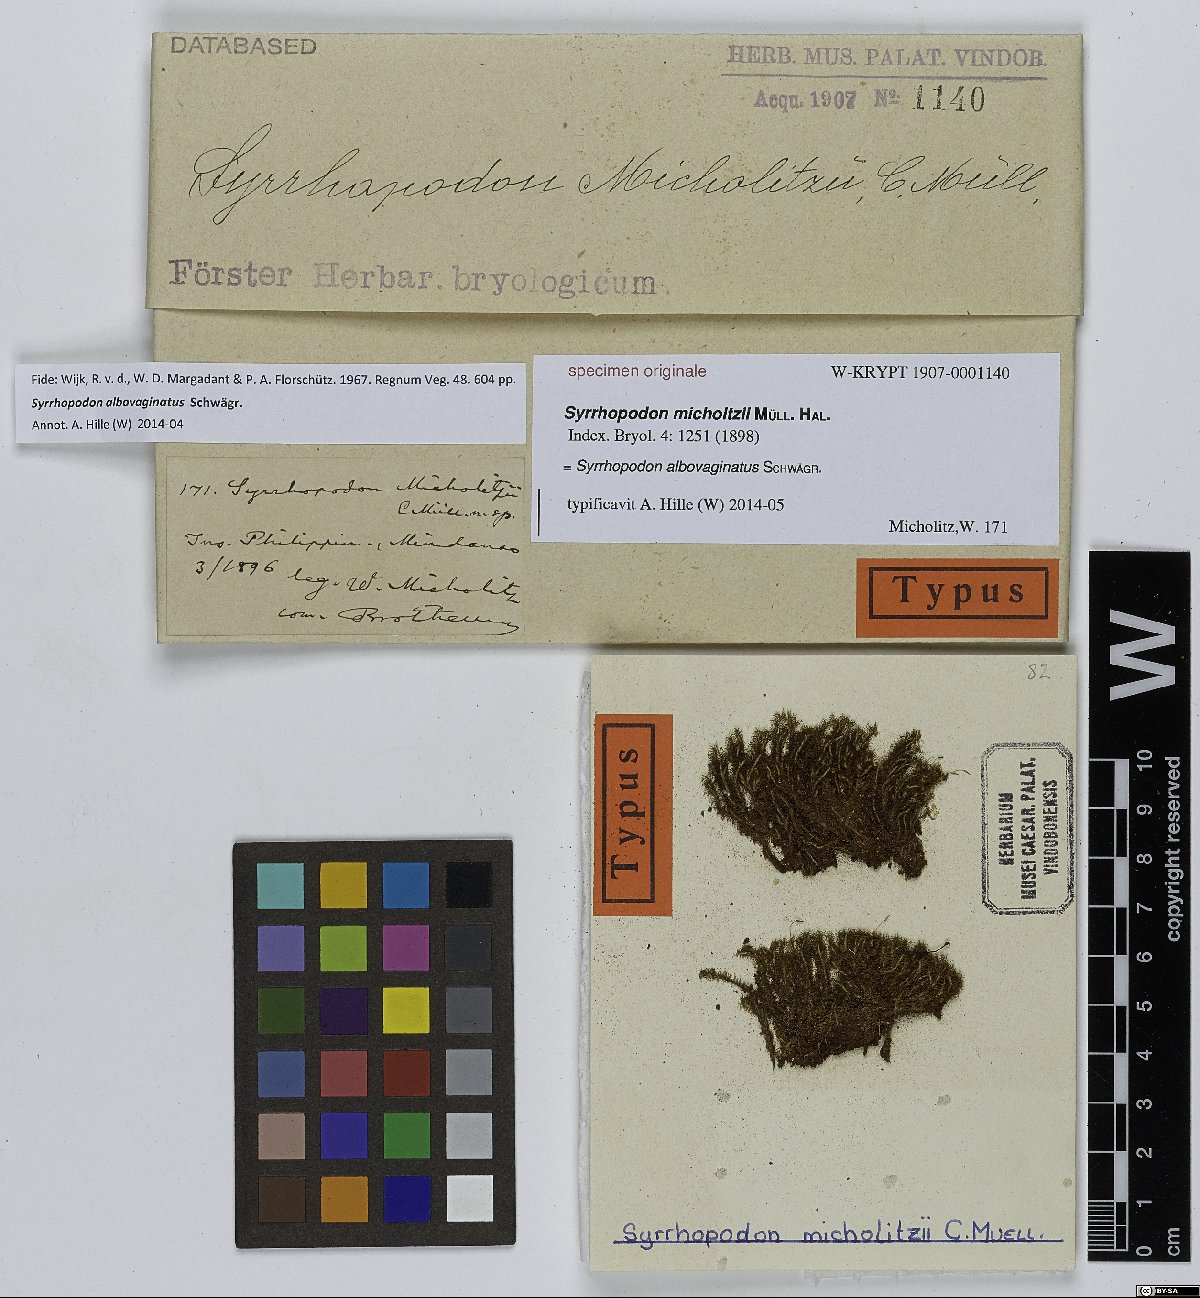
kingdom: Plantae
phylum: Bryophyta
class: Bryopsida
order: Dicranales
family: Calymperaceae
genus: Syrrhopodon
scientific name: Syrrhopodon albovaginatus
